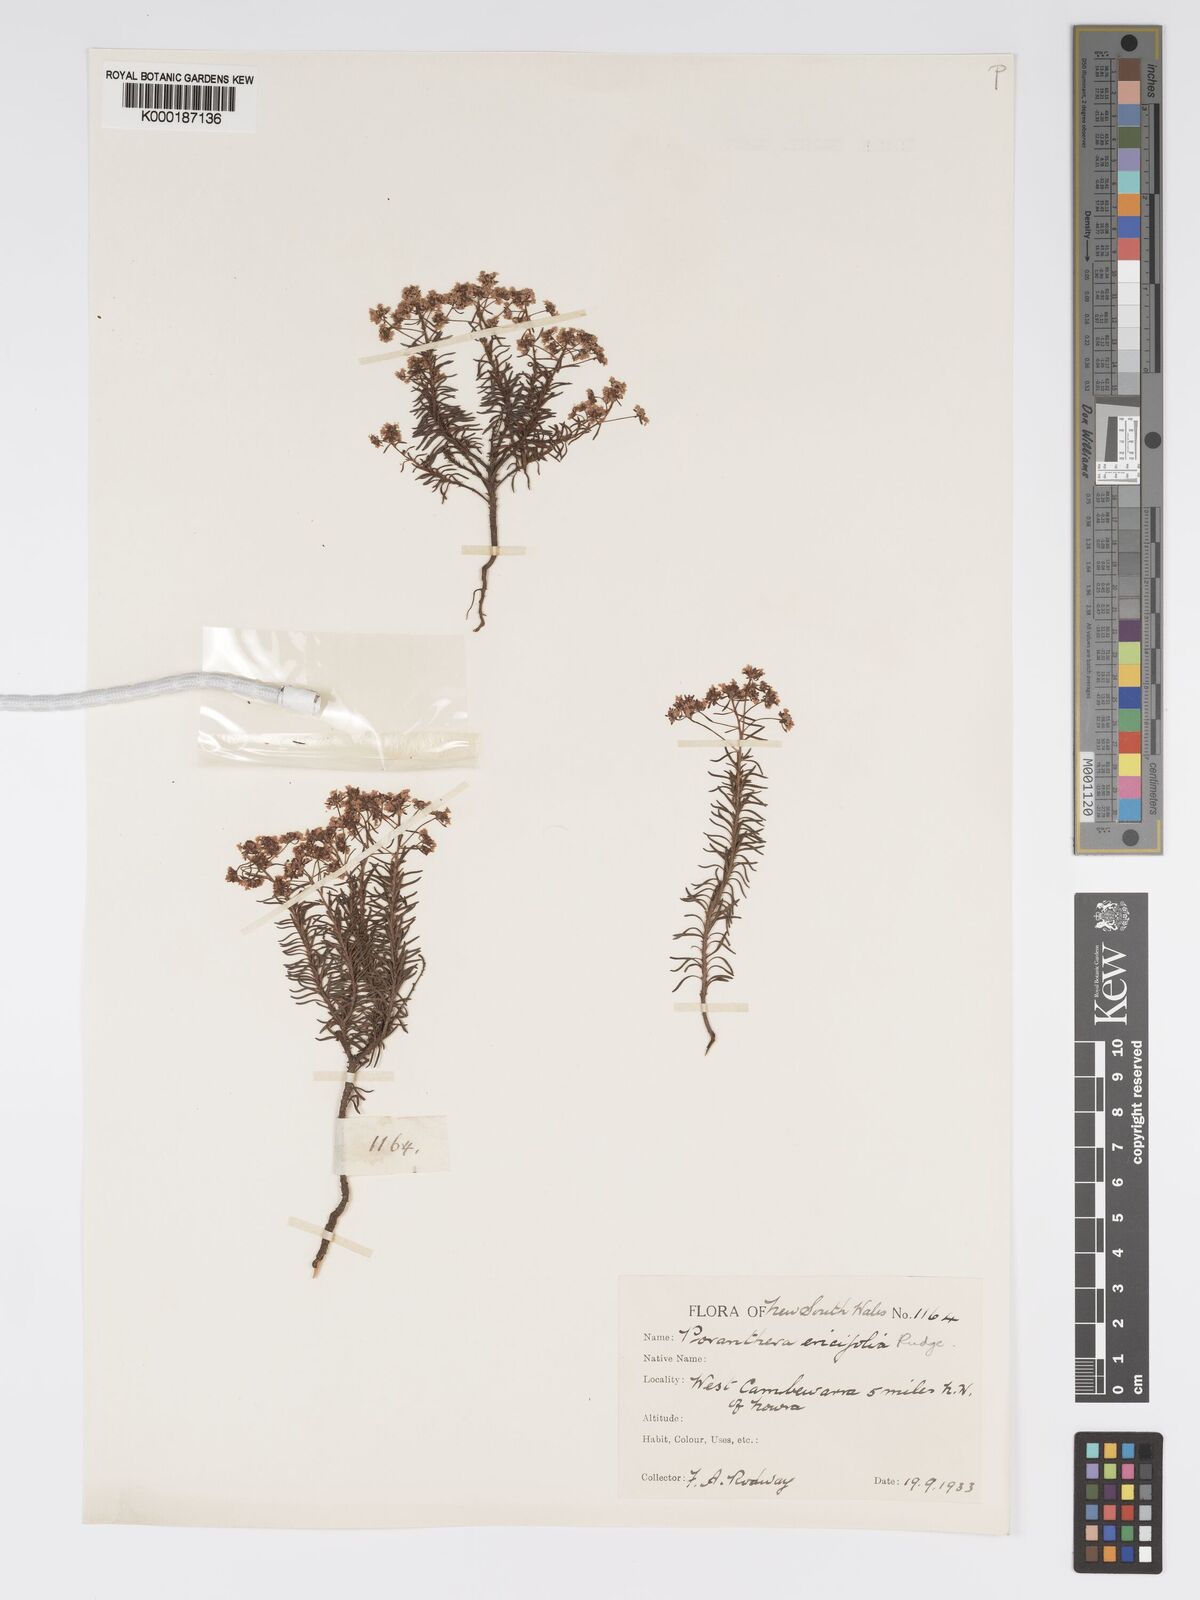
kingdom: Plantae
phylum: Tracheophyta
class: Magnoliopsida
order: Malpighiales
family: Phyllanthaceae
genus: Poranthera
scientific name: Poranthera ericifolia
